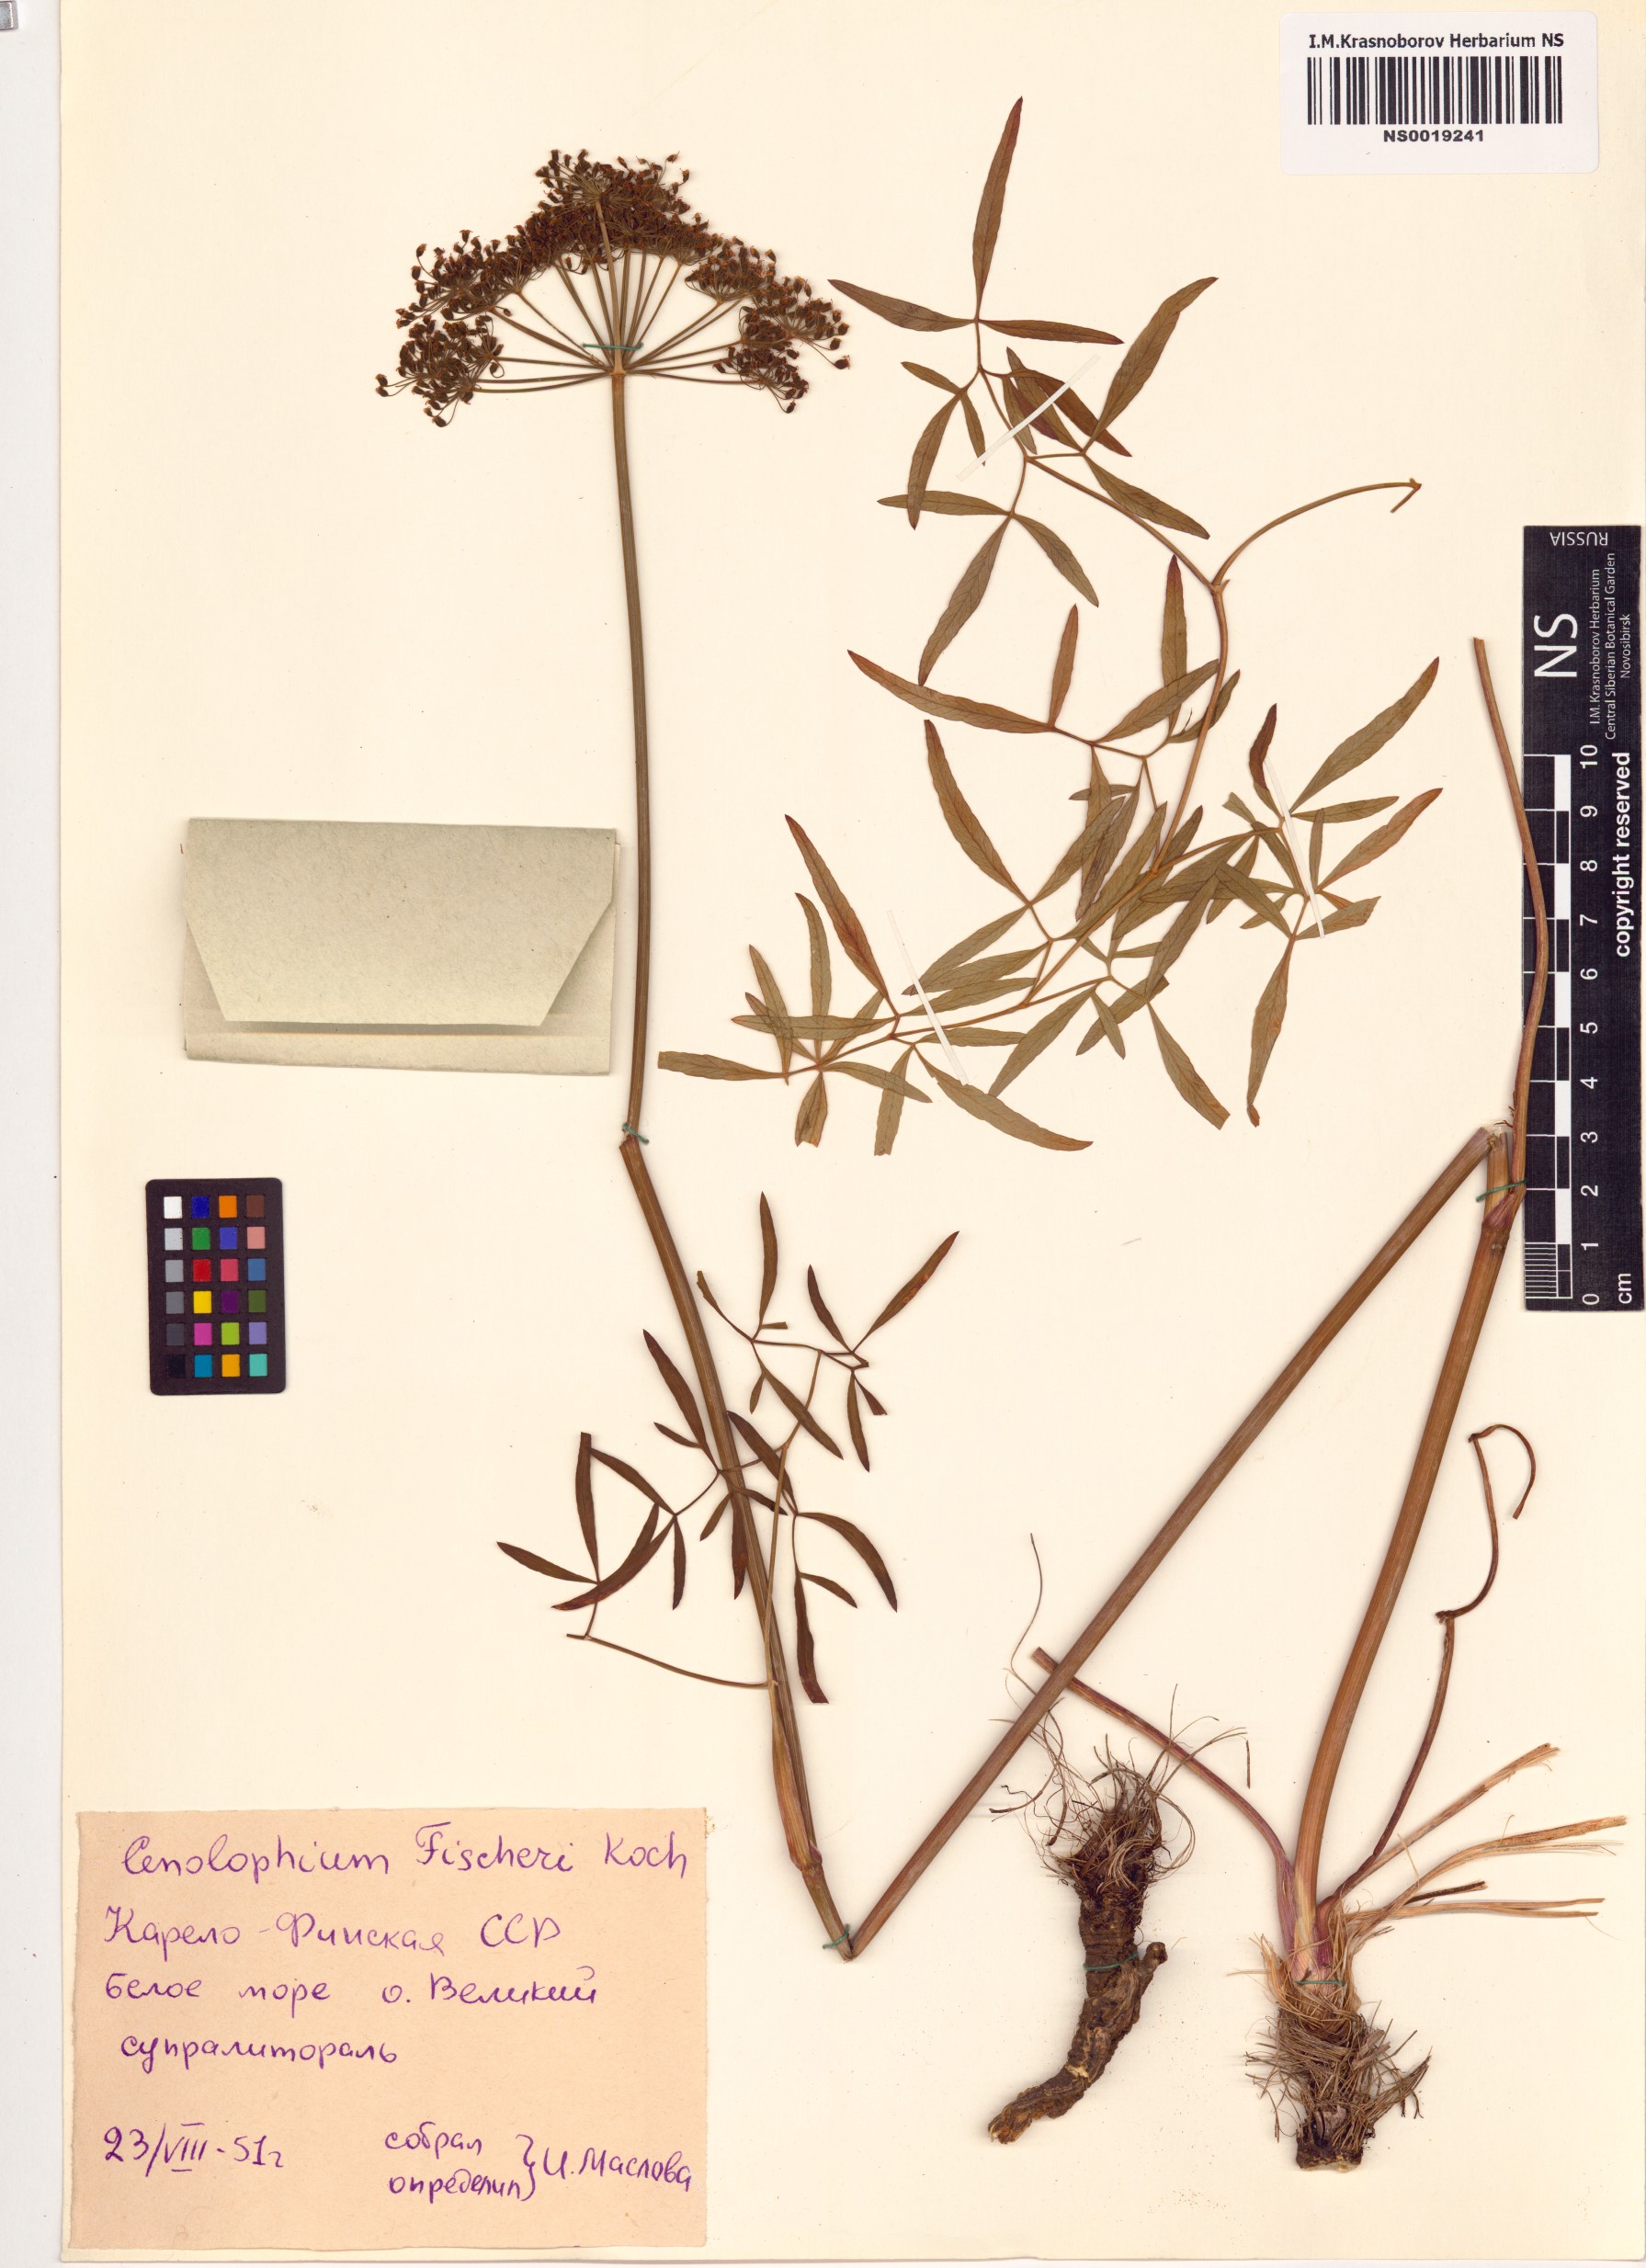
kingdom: Plantae
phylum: Tracheophyta
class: Magnoliopsida
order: Apiales
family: Apiaceae
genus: Cenolophium
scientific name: Cenolophium fischeri
